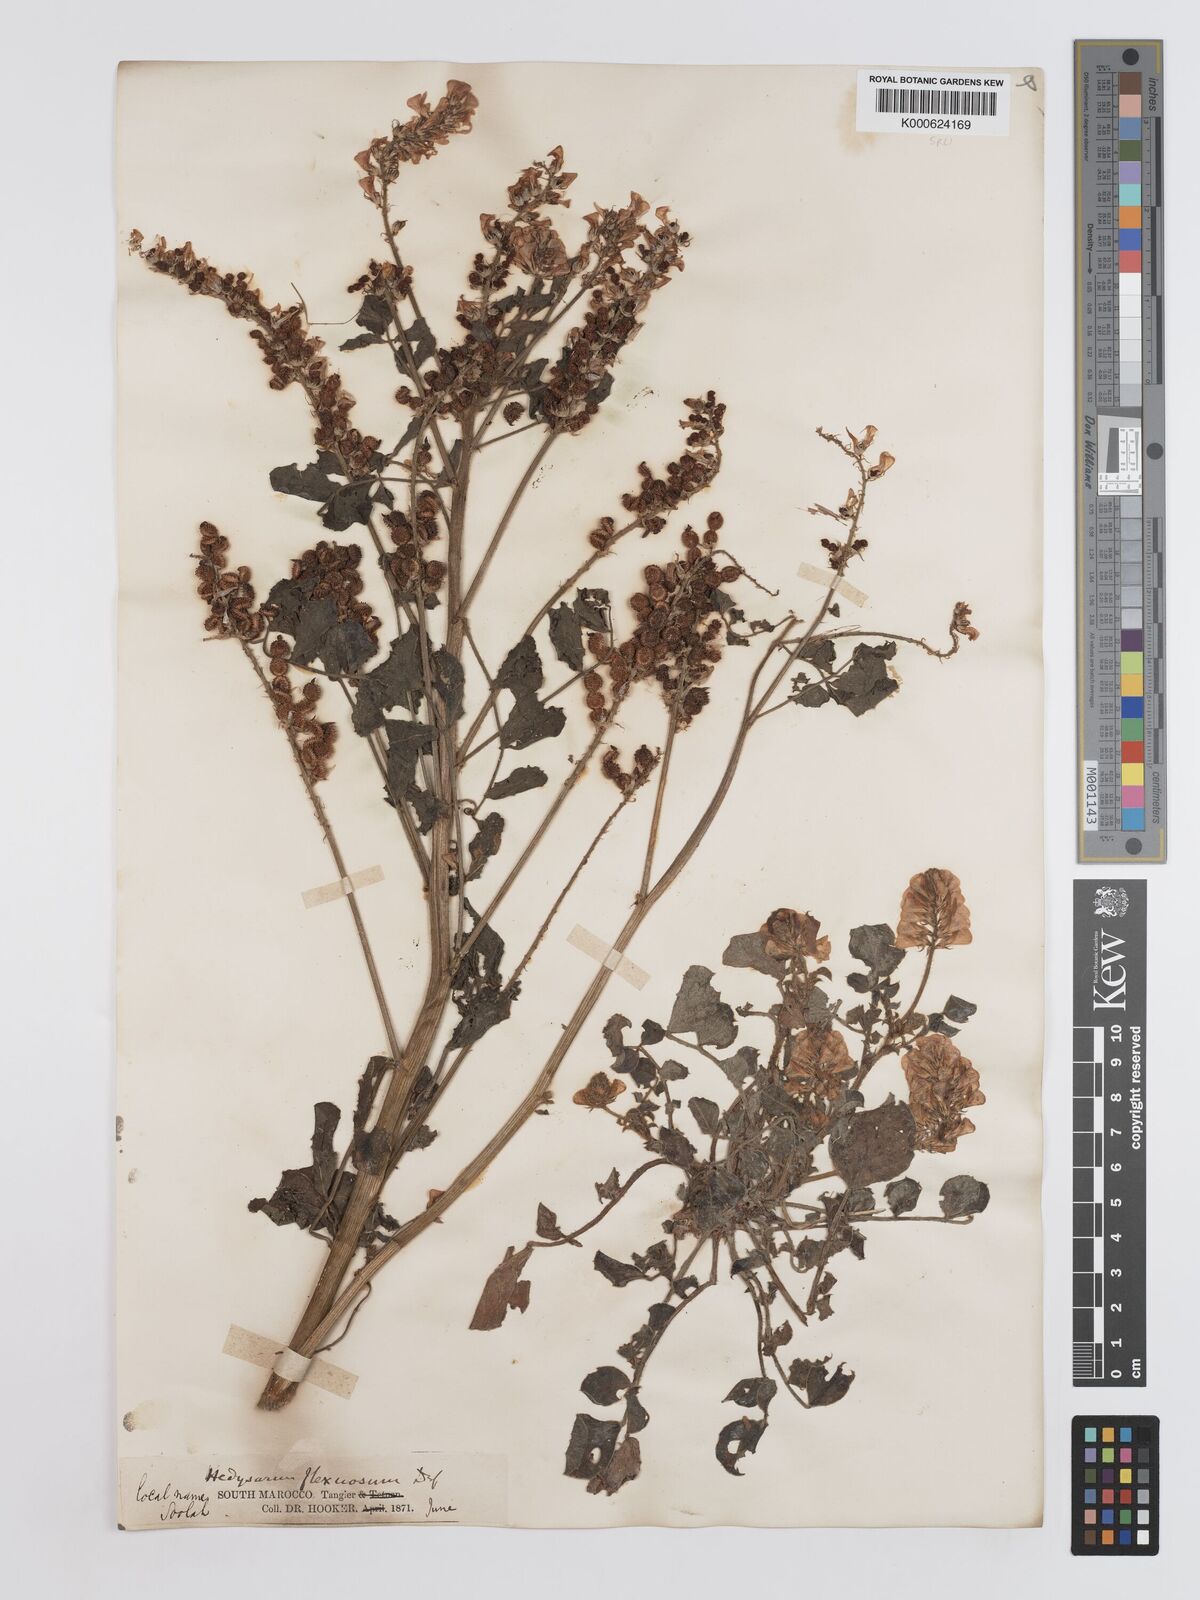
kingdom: Plantae
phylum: Tracheophyta
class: Magnoliopsida
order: Fabales
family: Fabaceae
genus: Sulla
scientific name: Sulla flexuosa
